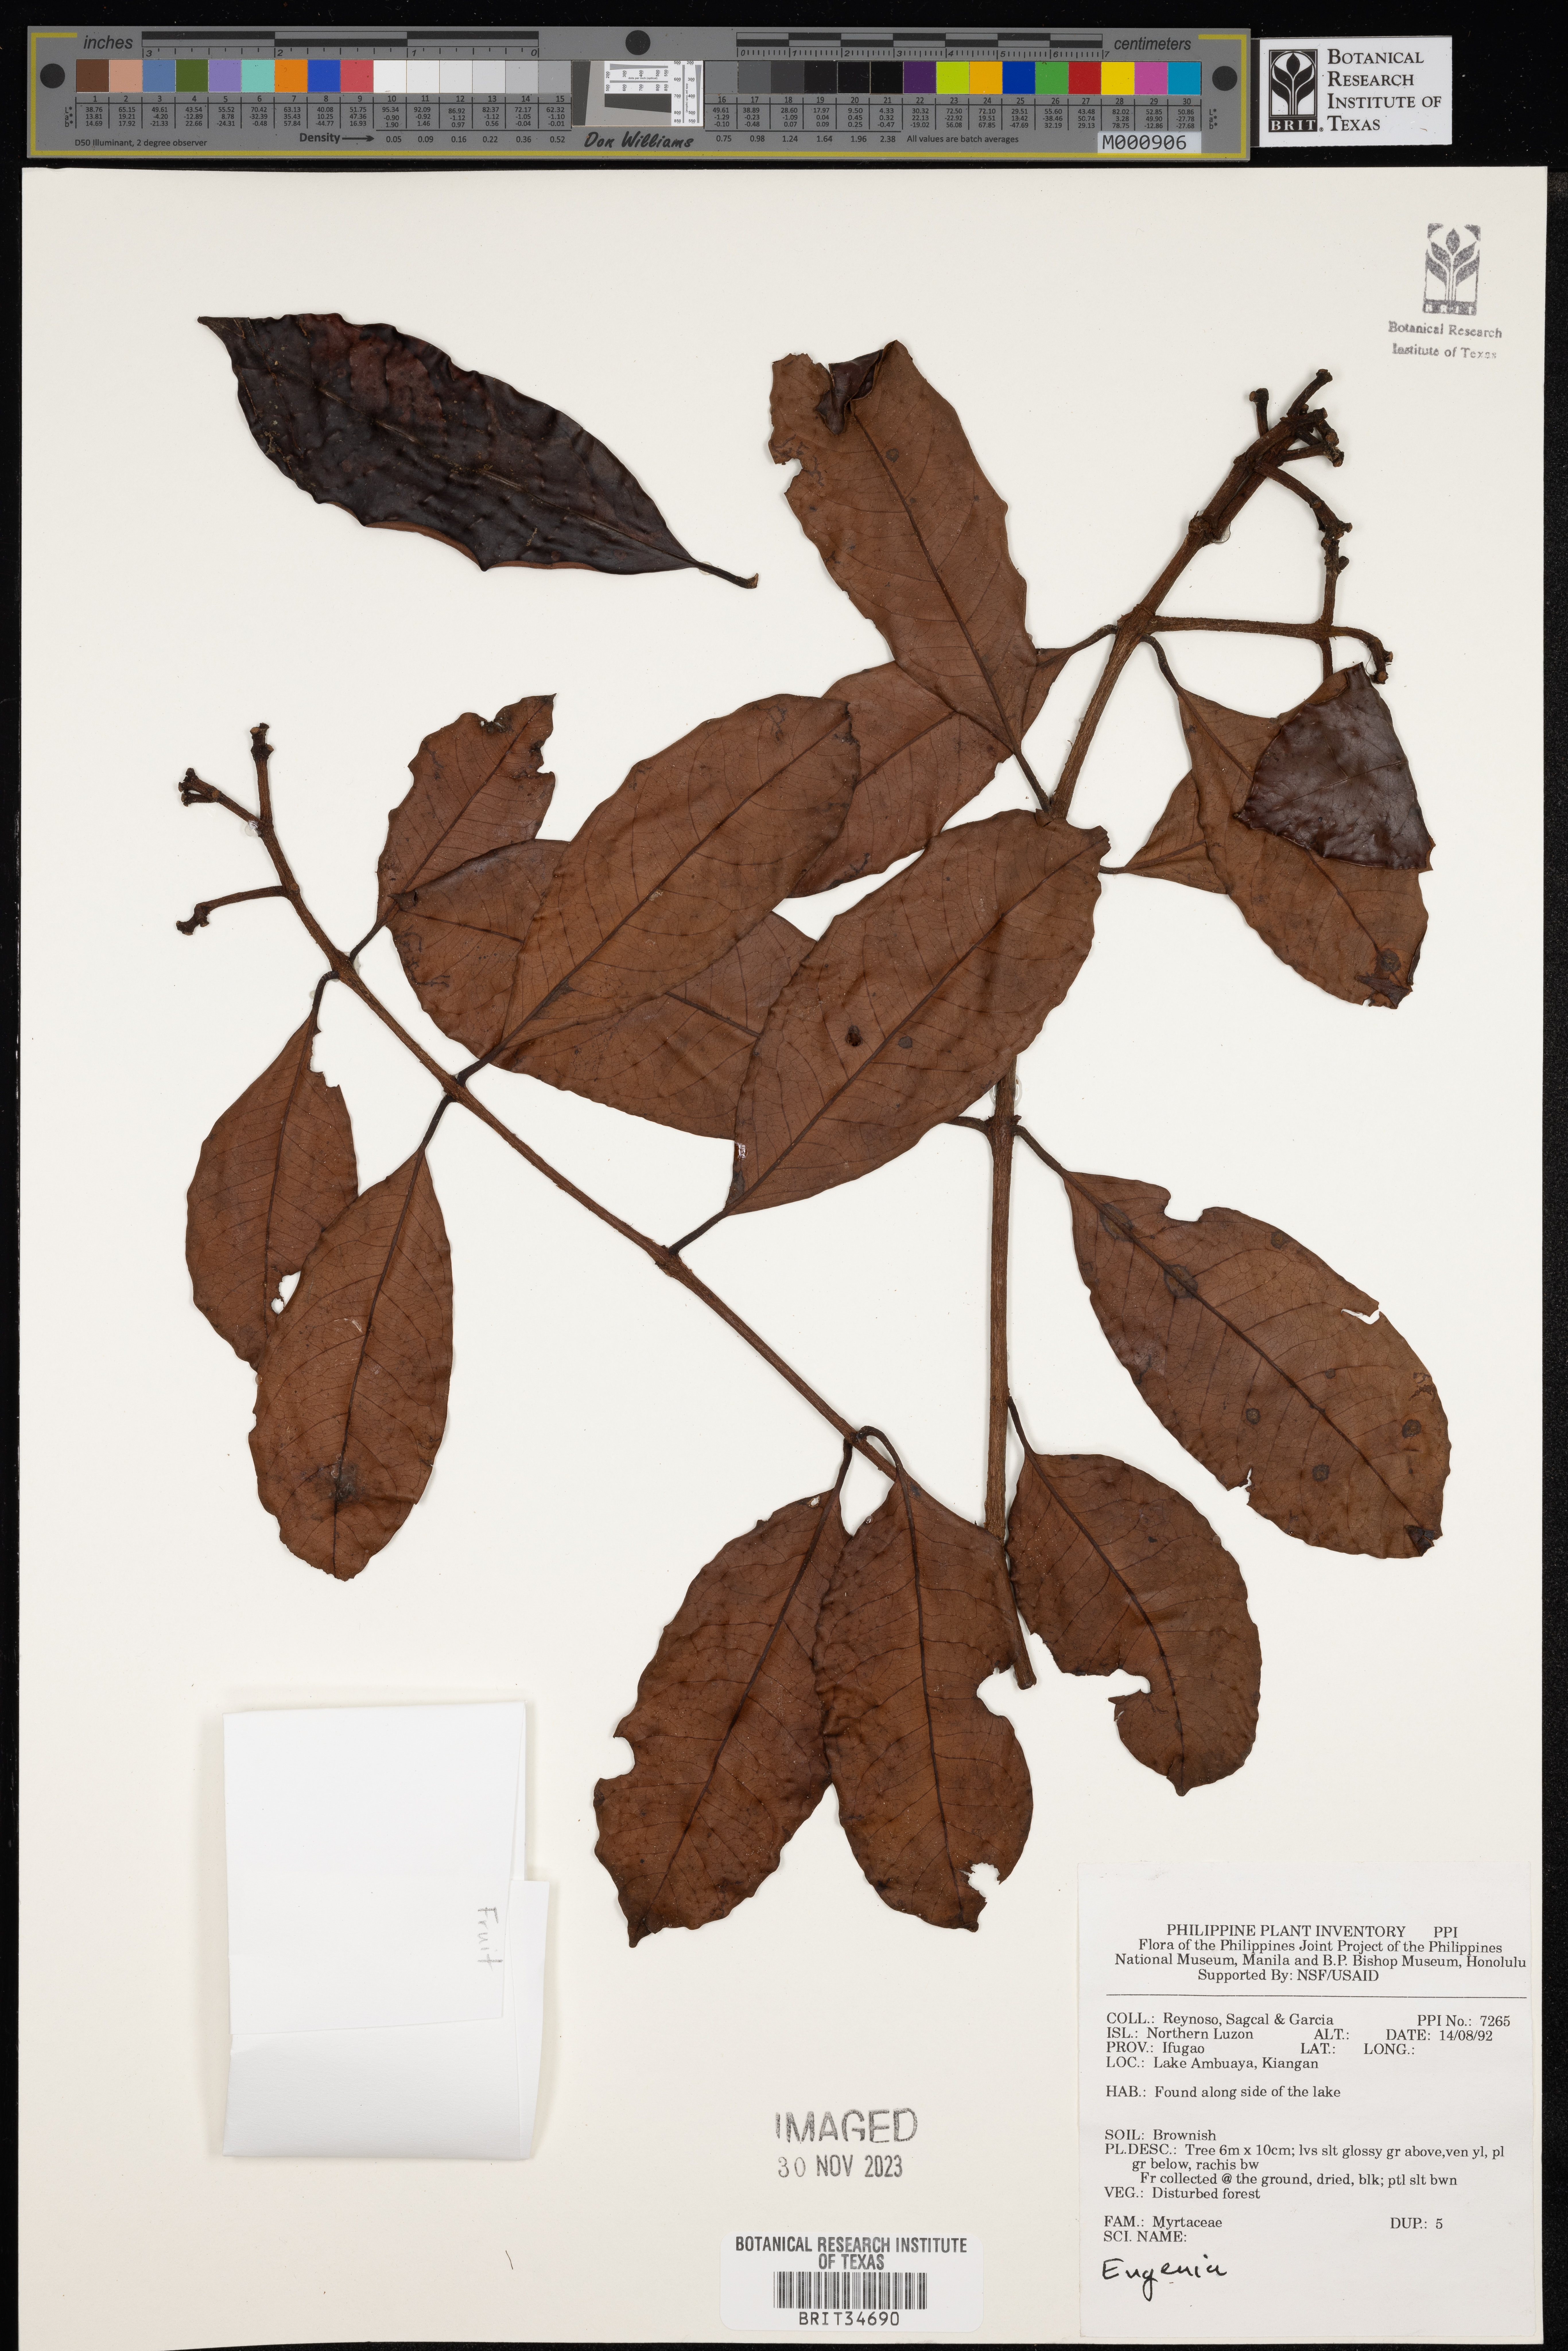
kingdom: Plantae
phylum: Tracheophyta
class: Magnoliopsida
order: Myrtales
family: Myrtaceae
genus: Eugenia
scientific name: Eugenia
